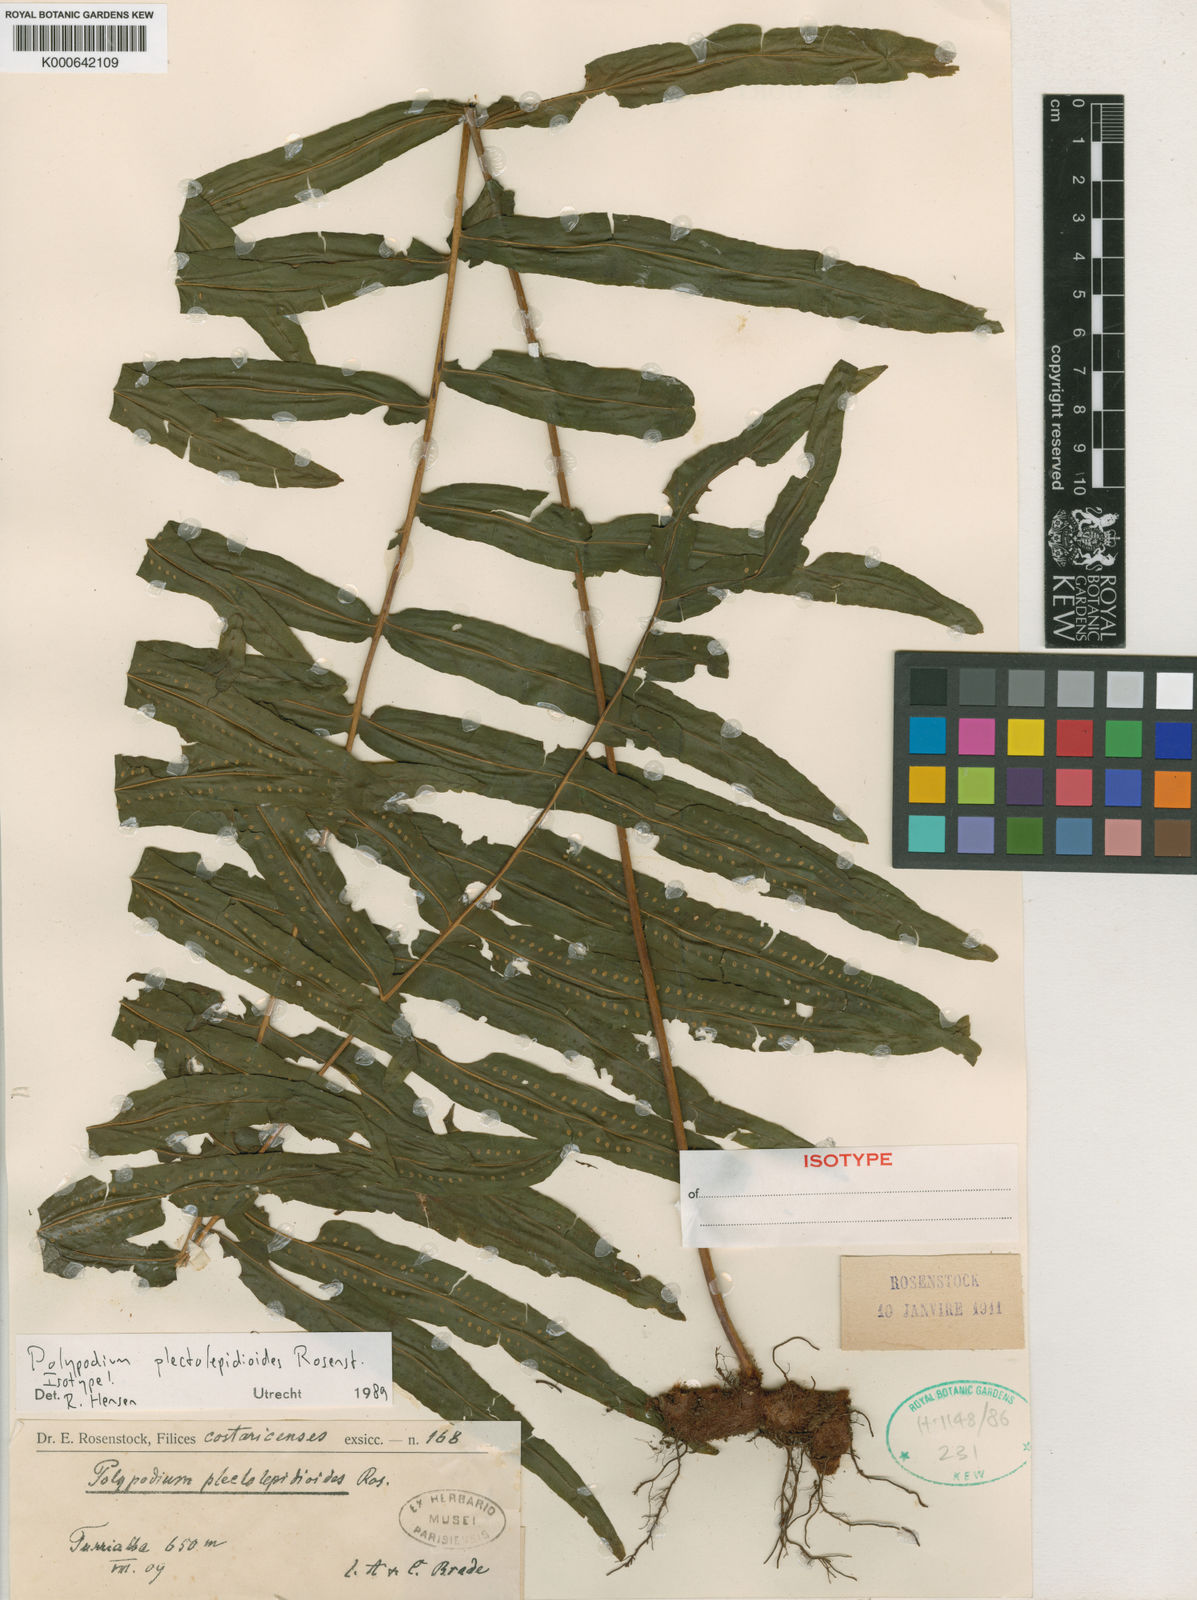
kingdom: Plantae
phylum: Tracheophyta
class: Polypodiopsida
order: Polypodiales
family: Polypodiaceae
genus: Polypodium
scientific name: Polypodium plectolepidioides
